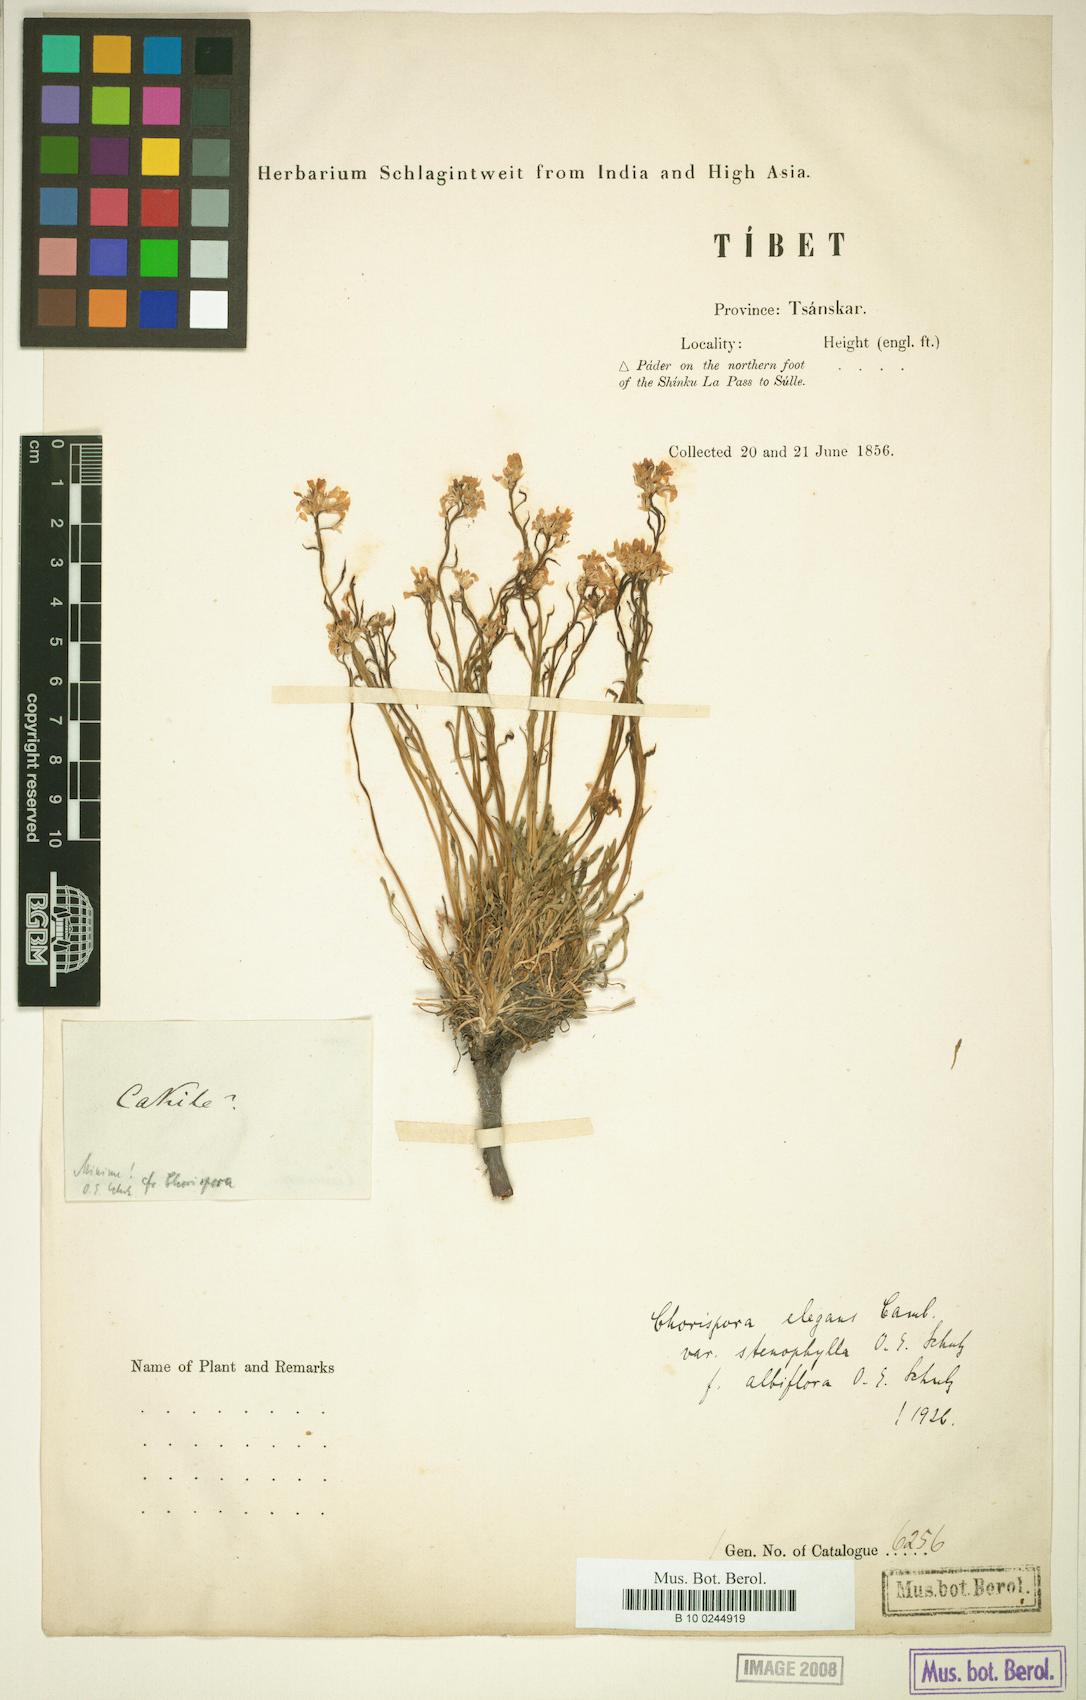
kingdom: Plantae
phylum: Tracheophyta
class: Magnoliopsida
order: Brassicales
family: Brassicaceae
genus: Chorispora
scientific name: Chorispora sabulosa
